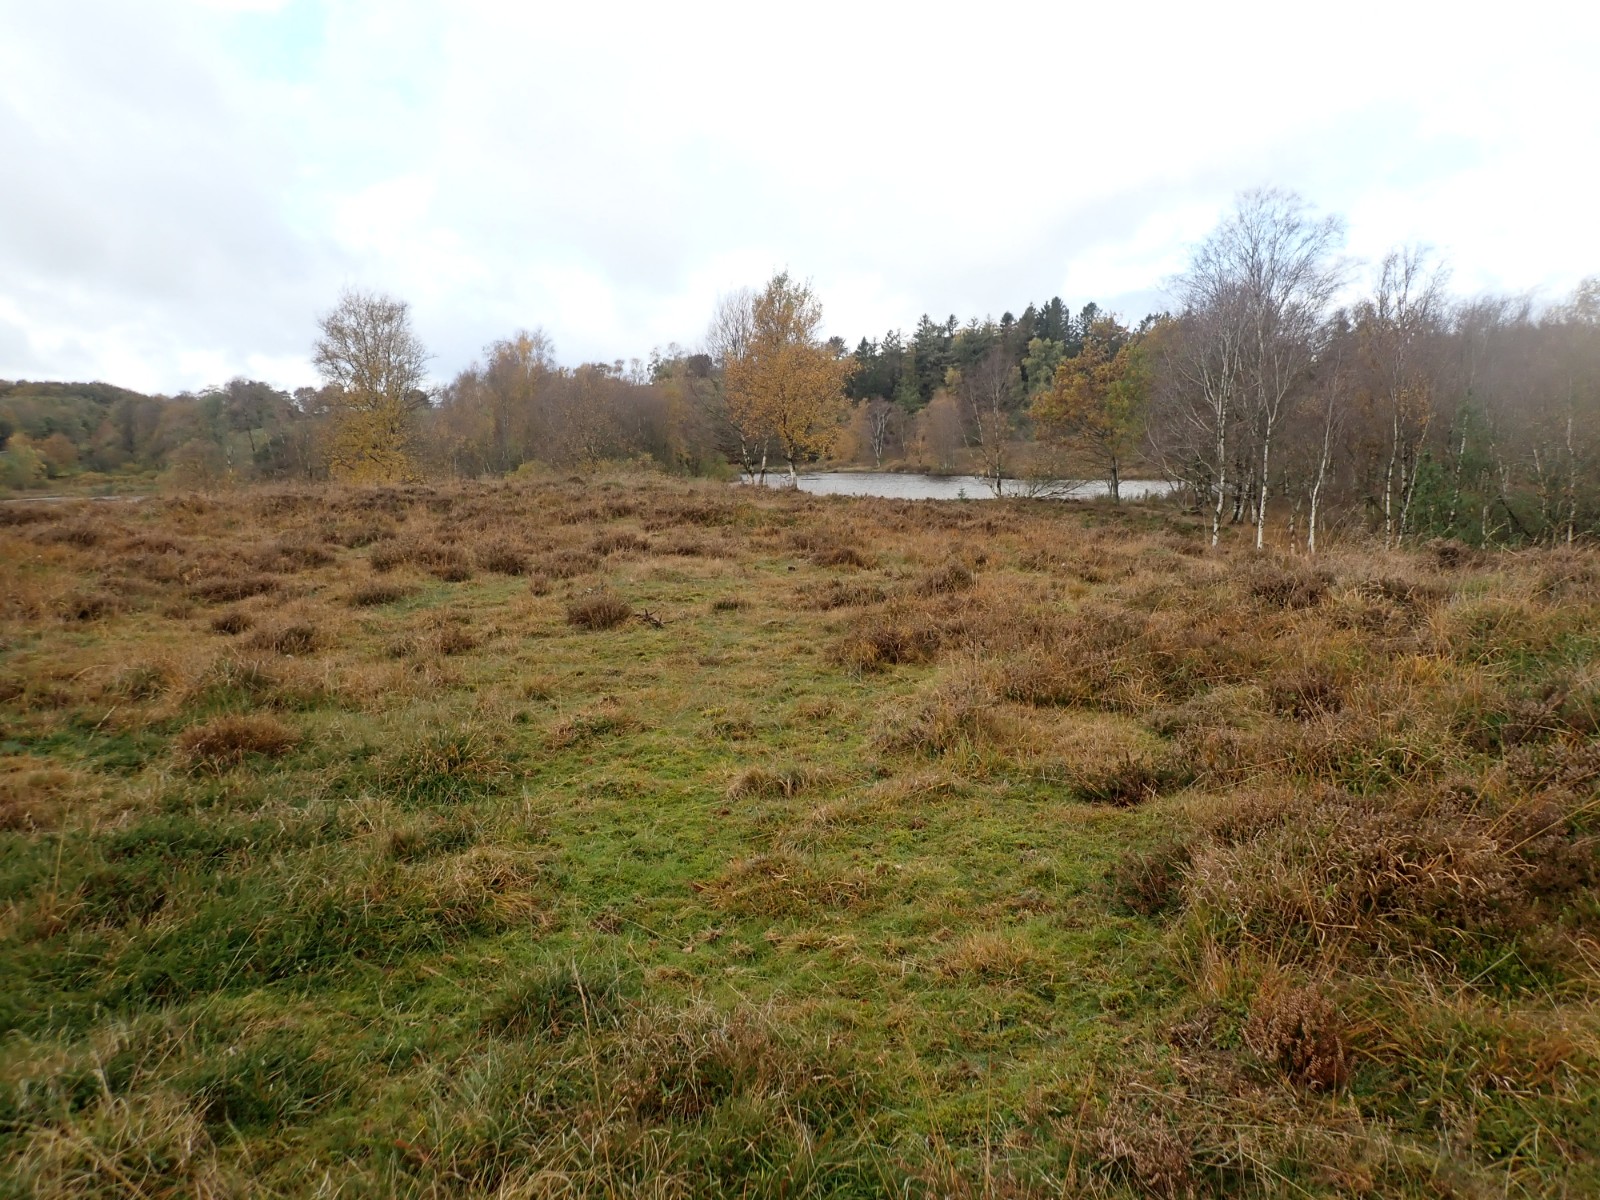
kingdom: Fungi
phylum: Basidiomycota
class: Agaricomycetes
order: Agaricales
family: Hygrophoraceae
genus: Hygrocybe
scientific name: Hygrocybe miniata
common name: mønje-vokshat
